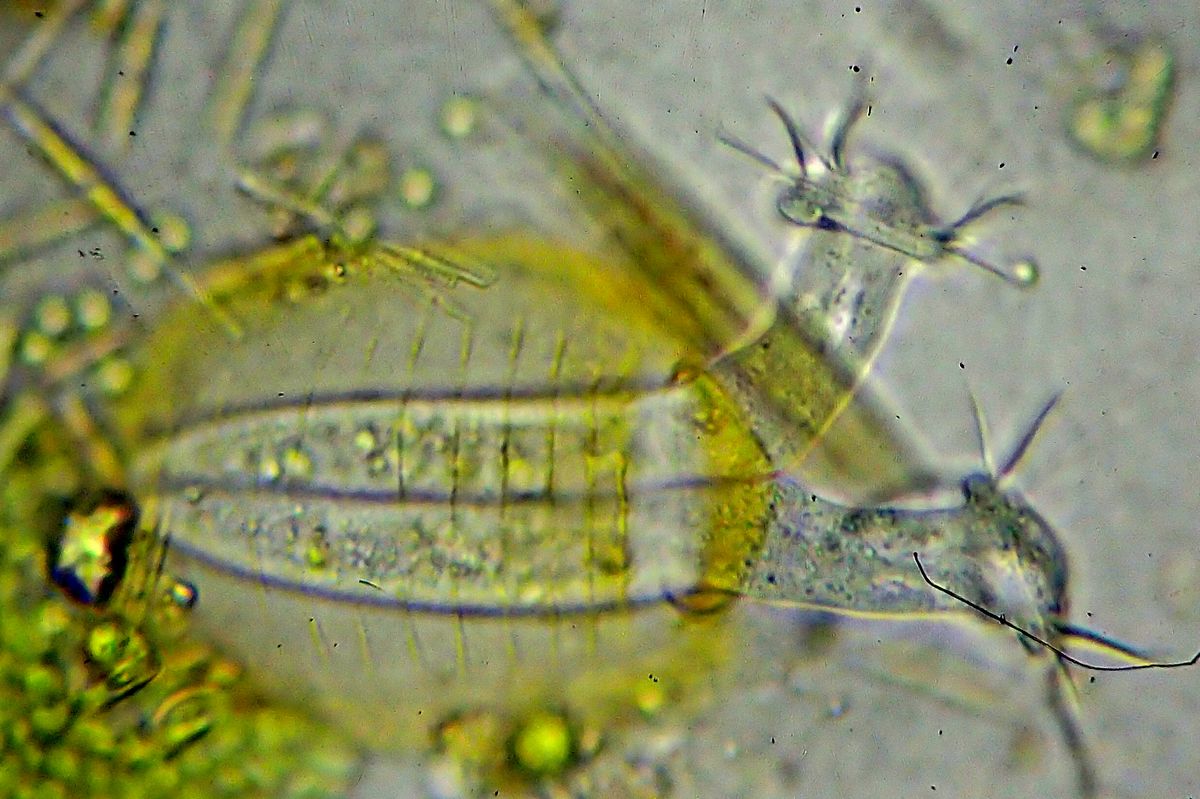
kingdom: Chromista
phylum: Ciliophora
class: Oligohymenophorea
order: Peritrichida
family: Vaginicolidae
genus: Platycola
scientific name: Platycola decumbens
